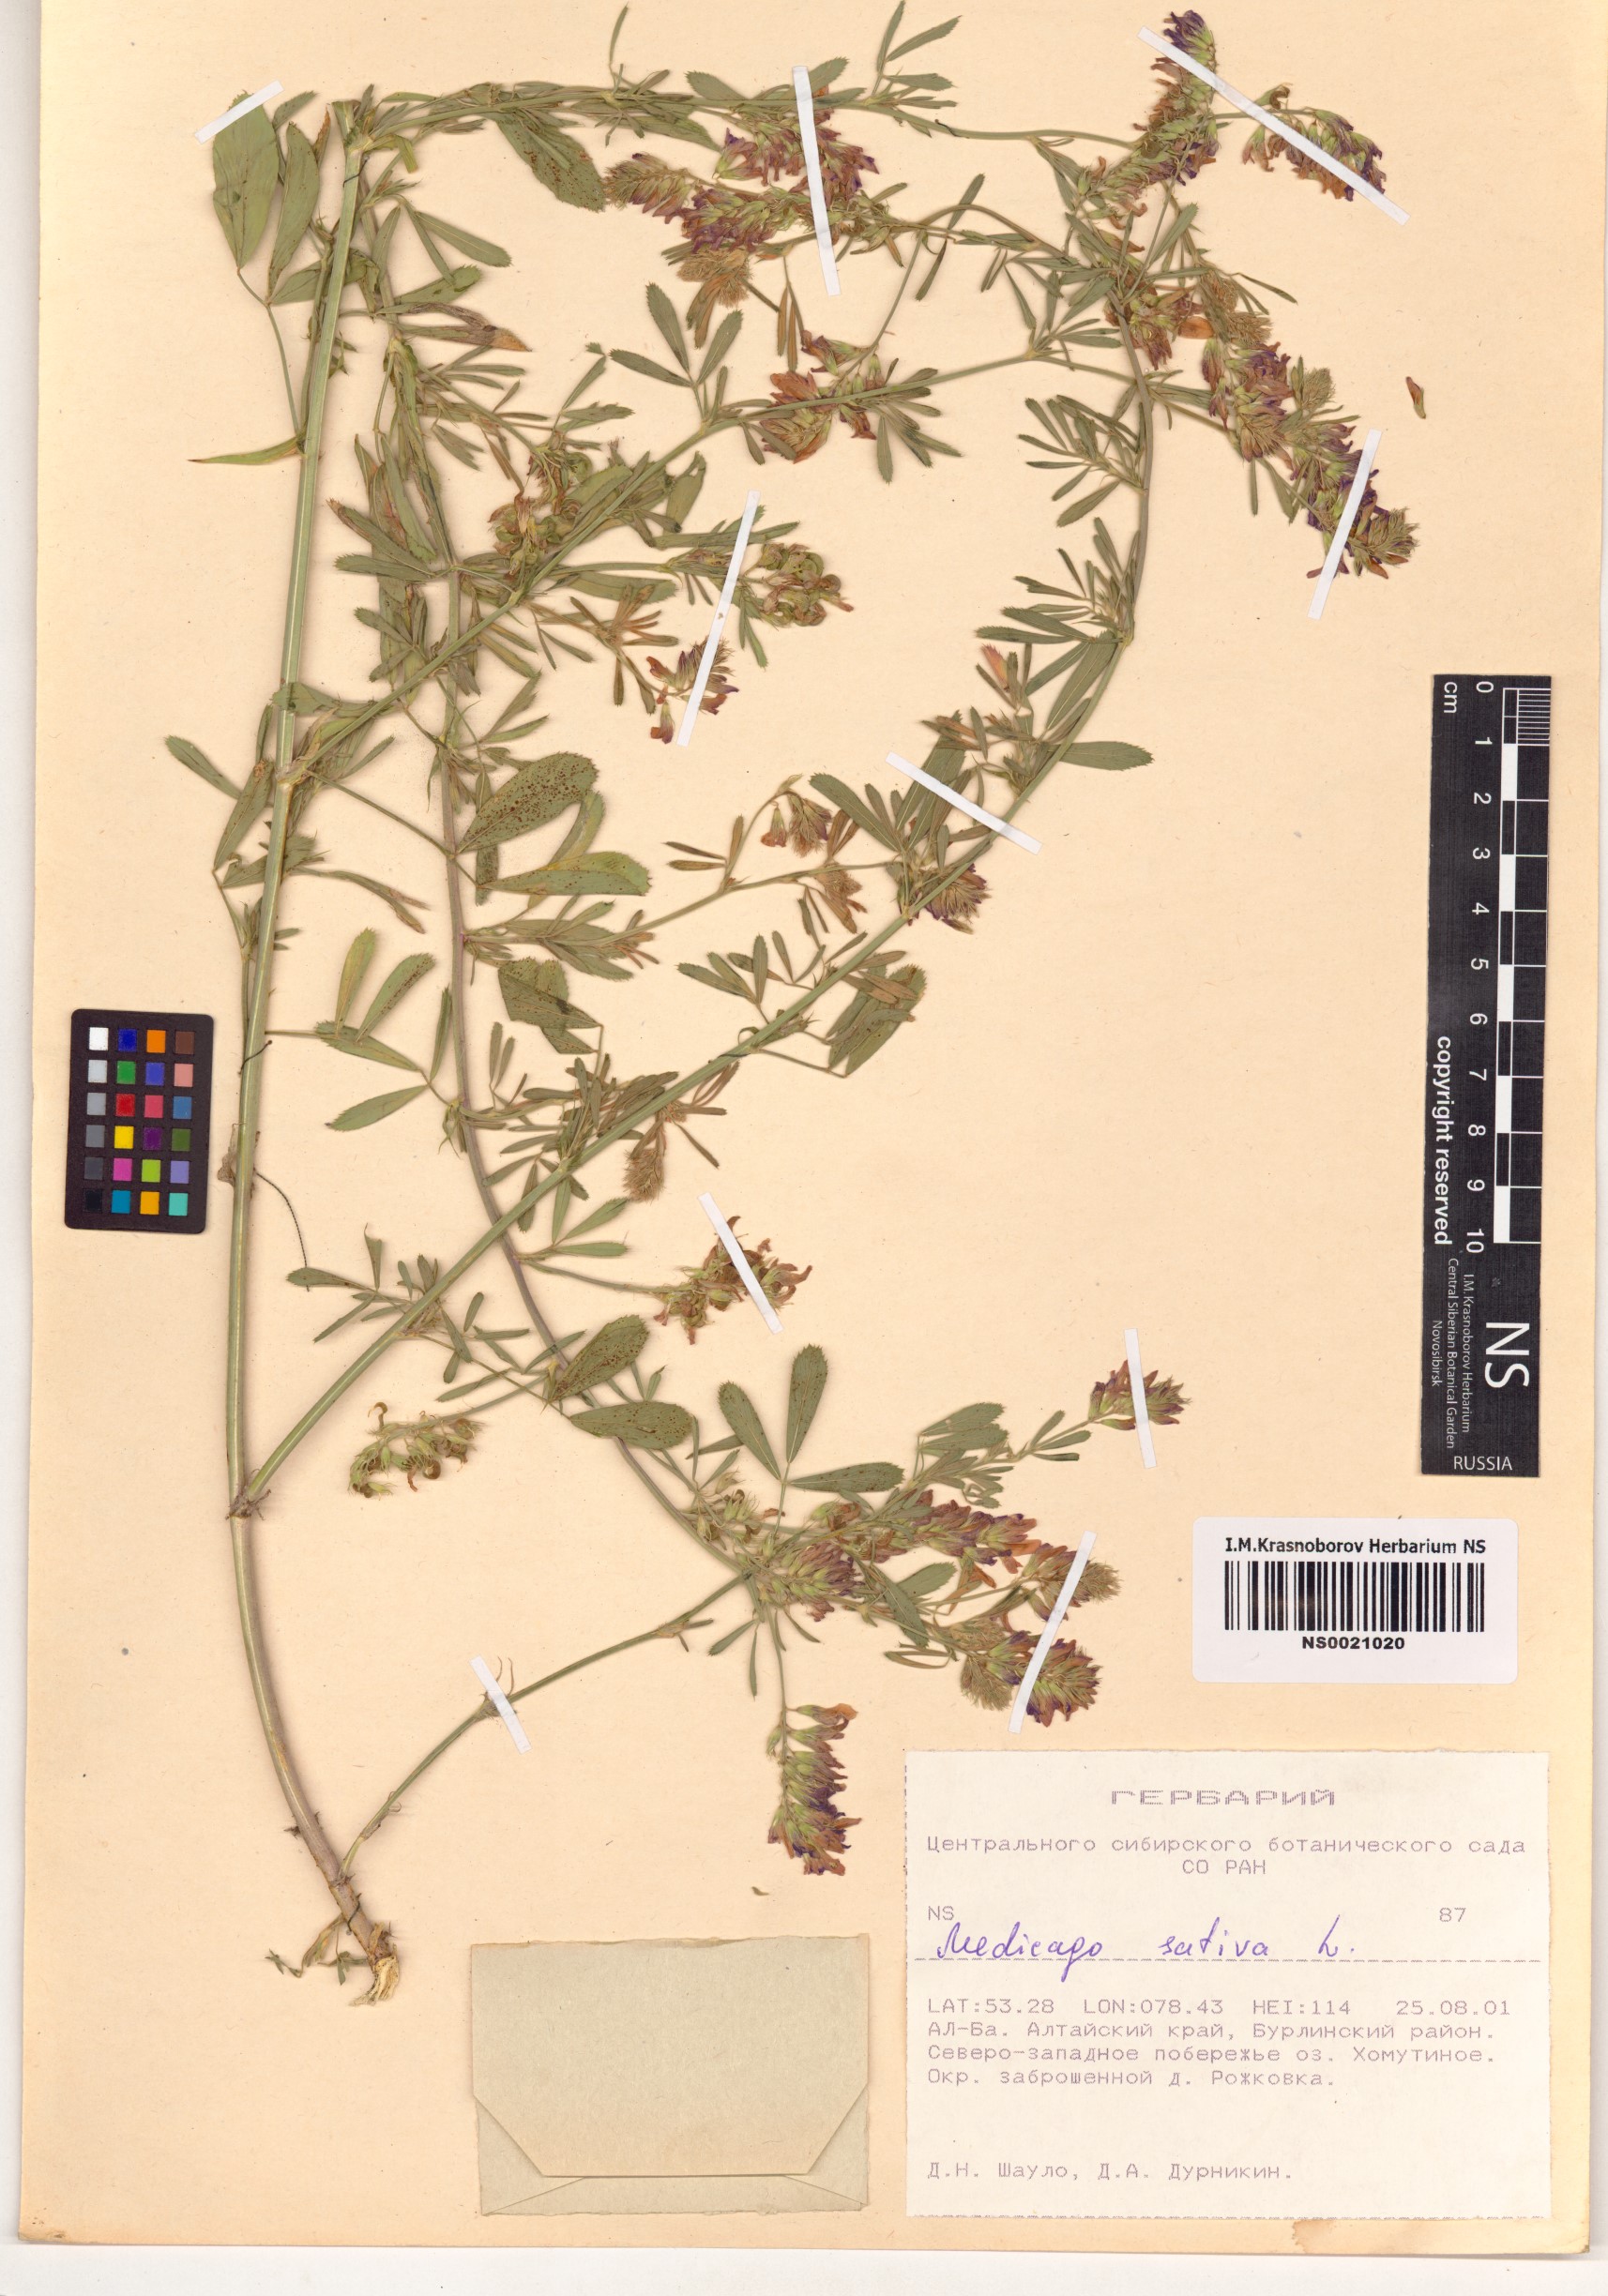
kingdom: Plantae
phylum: Tracheophyta
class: Magnoliopsida
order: Fabales
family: Fabaceae
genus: Medicago
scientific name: Medicago sativa
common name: Alfalfa
